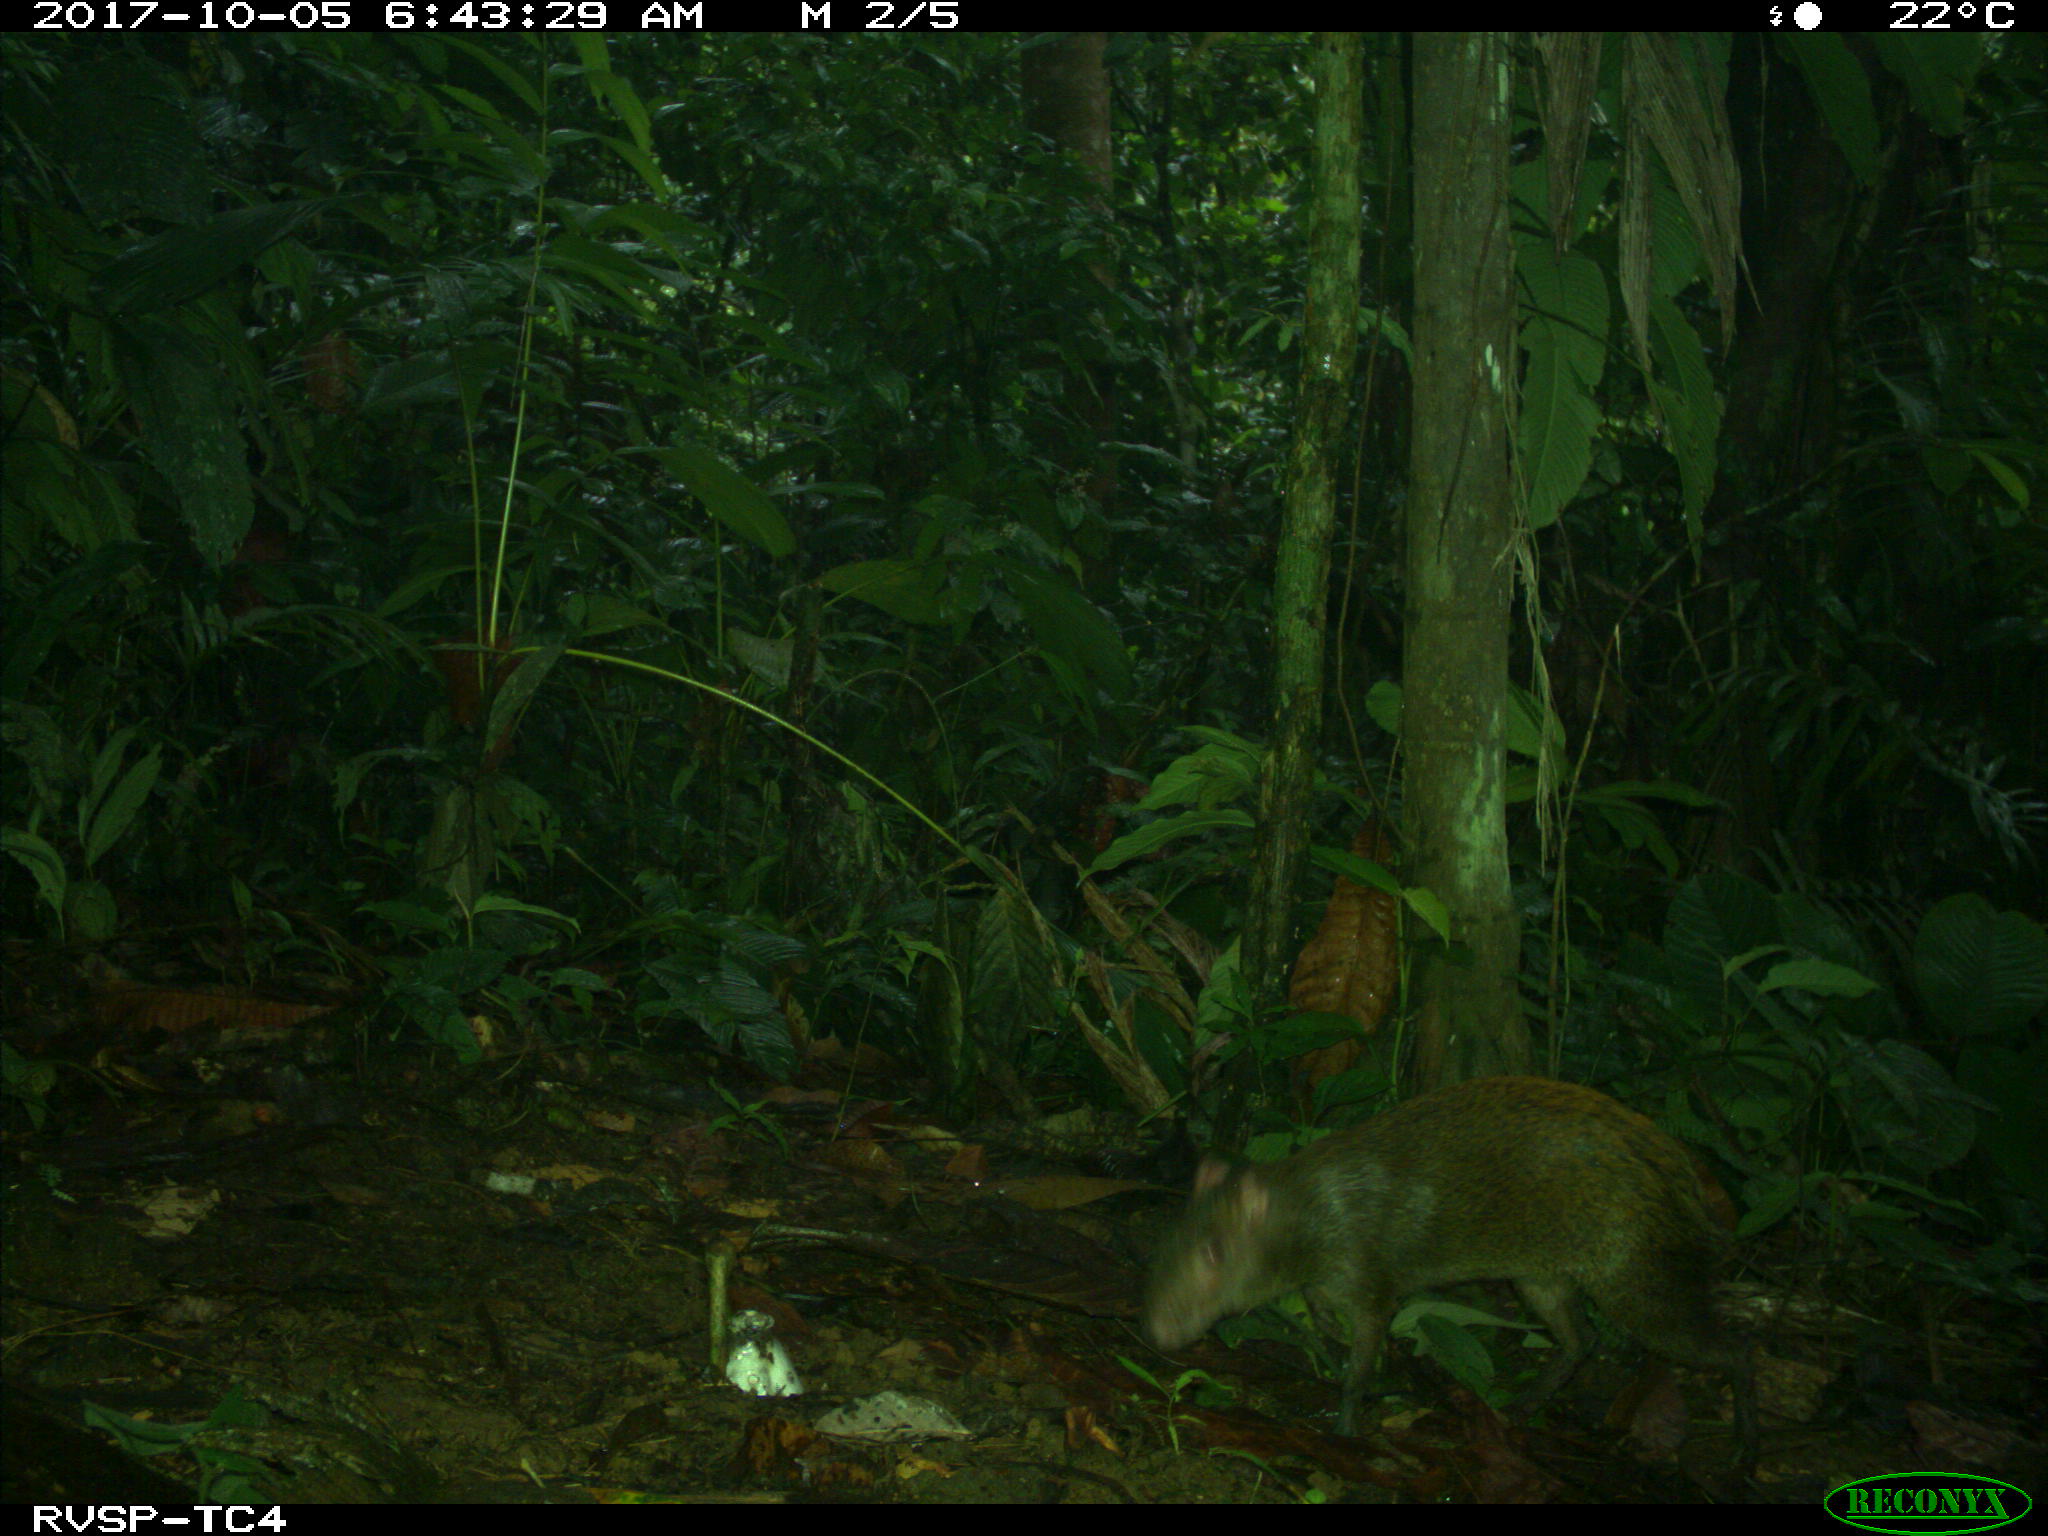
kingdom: Animalia
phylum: Chordata
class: Mammalia
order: Rodentia
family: Dasyproctidae
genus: Dasyprocta
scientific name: Dasyprocta punctata
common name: Central american agouti
